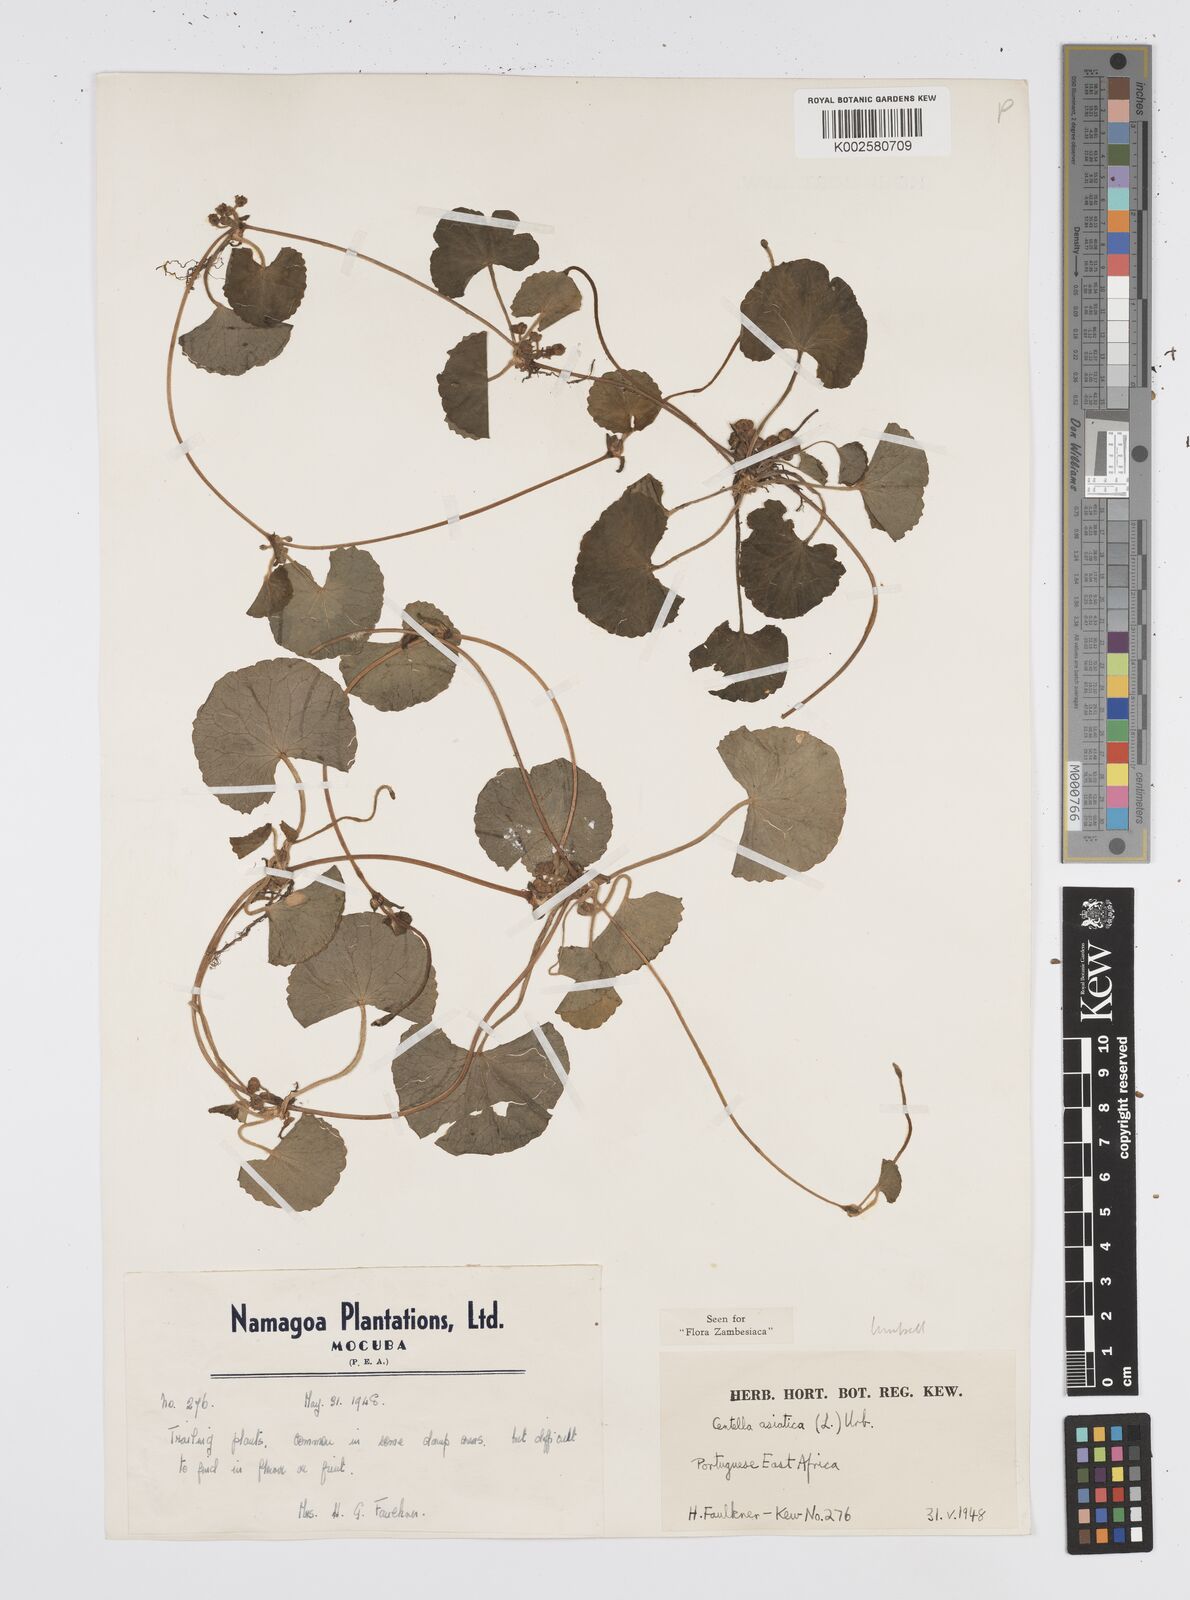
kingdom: Plantae
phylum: Tracheophyta
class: Magnoliopsida
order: Apiales
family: Apiaceae
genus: Centella
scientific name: Centella asiatica
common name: Spadeleaf
